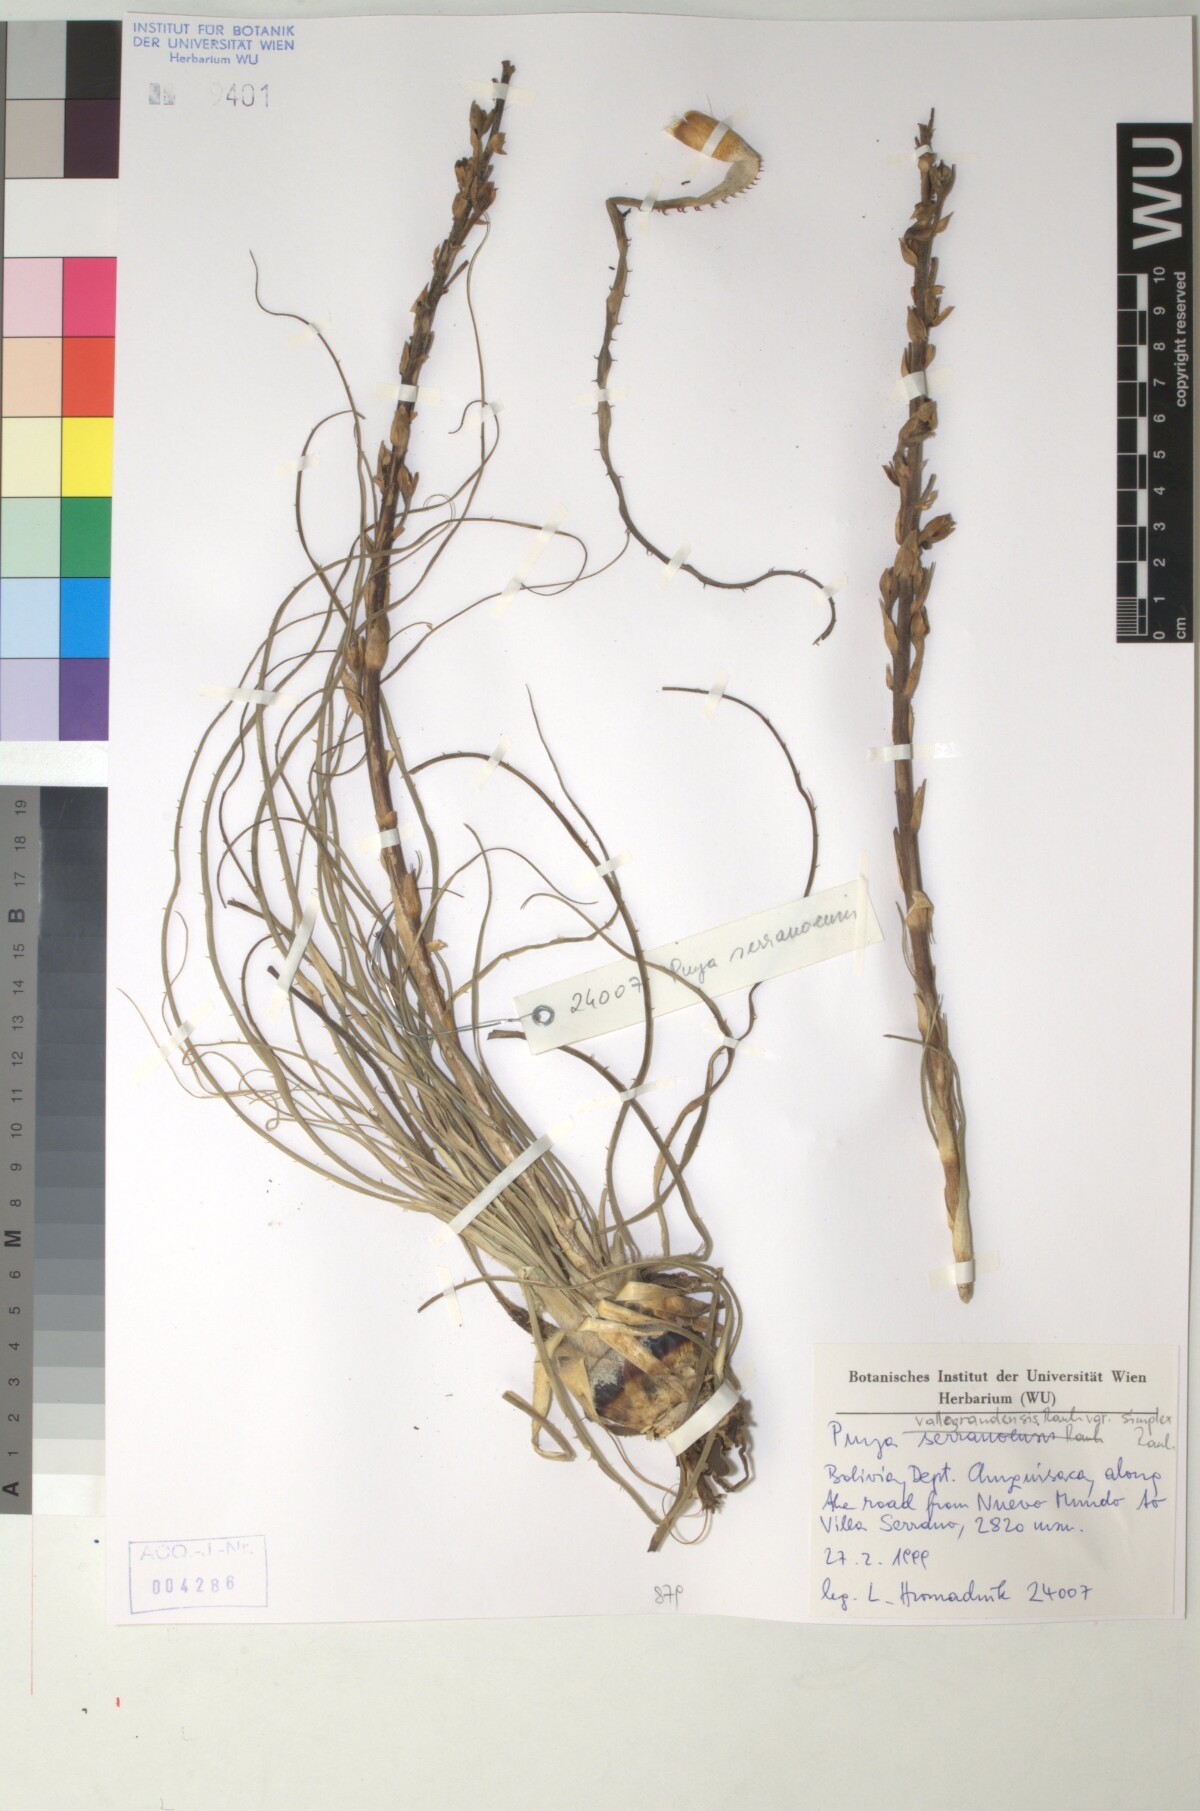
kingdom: Plantae
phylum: Tracheophyta
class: Liliopsida
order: Poales
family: Bromeliaceae
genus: Puya
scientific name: Puya vallo-grandensis
